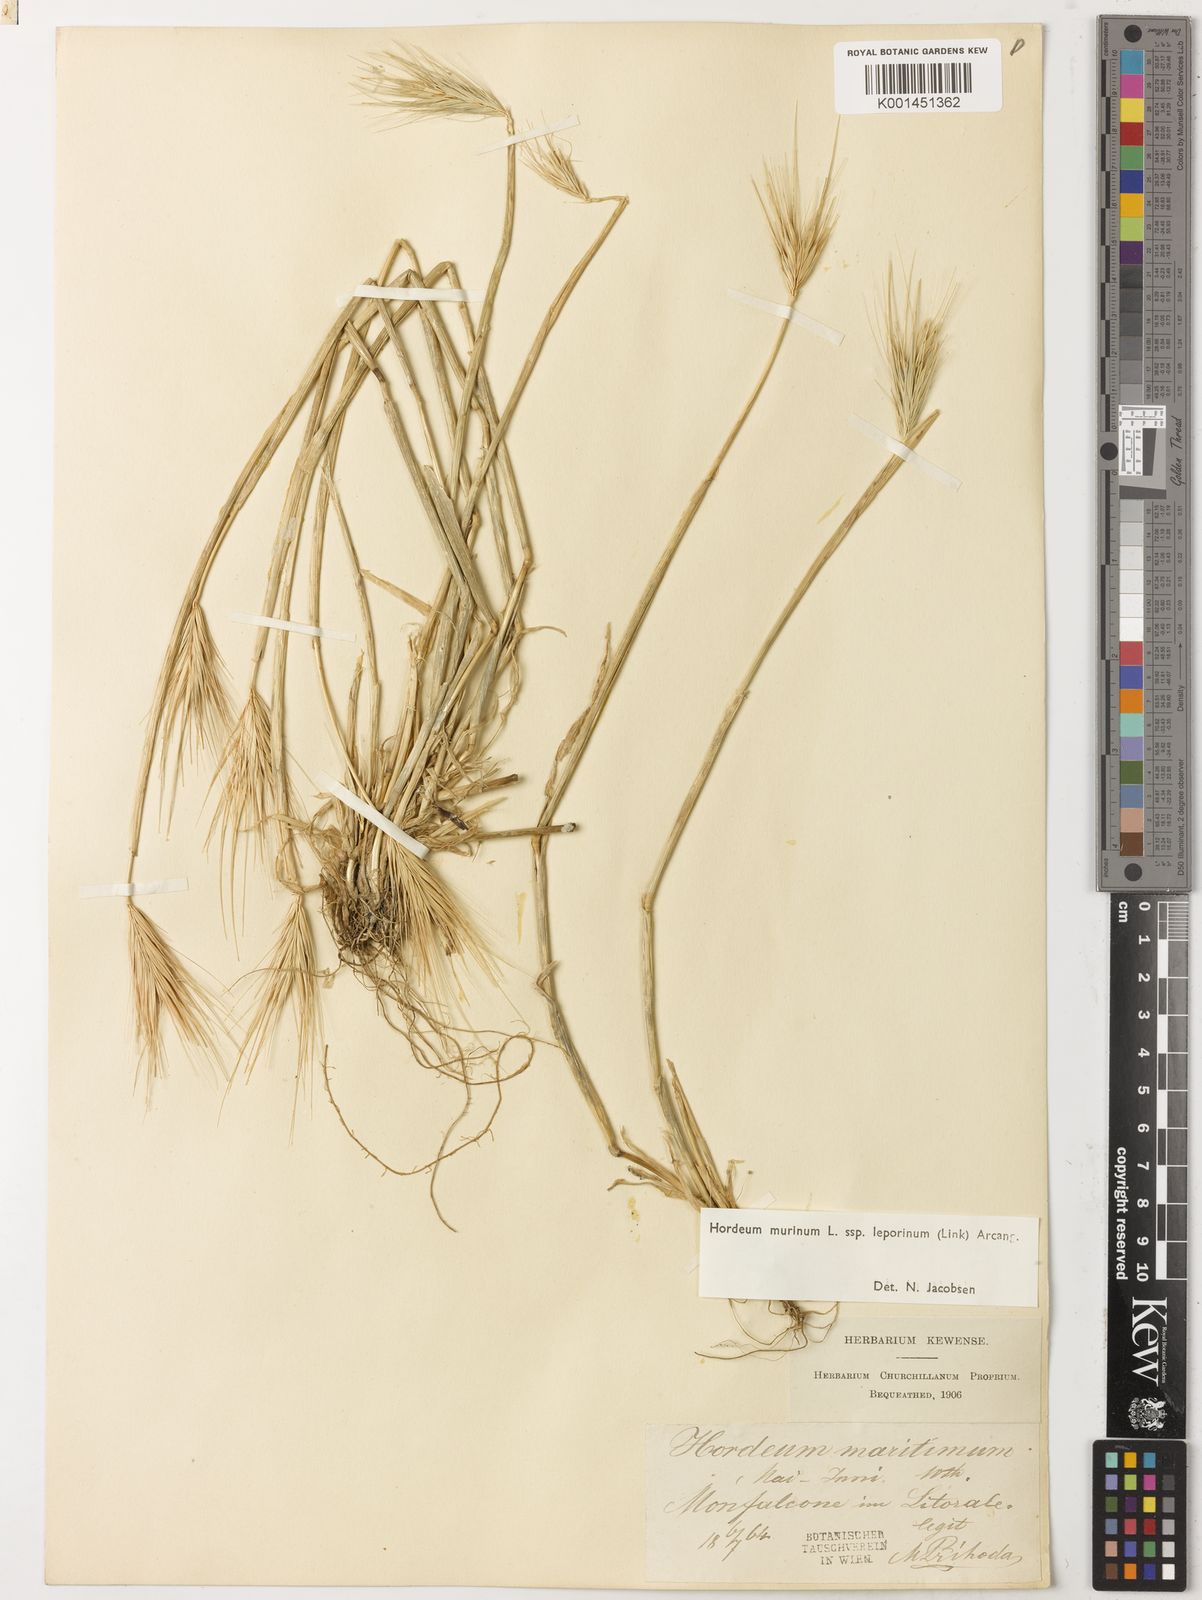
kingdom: Plantae
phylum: Tracheophyta
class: Liliopsida
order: Poales
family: Poaceae
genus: Hordeum
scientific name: Hordeum murinum
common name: Wall barley
